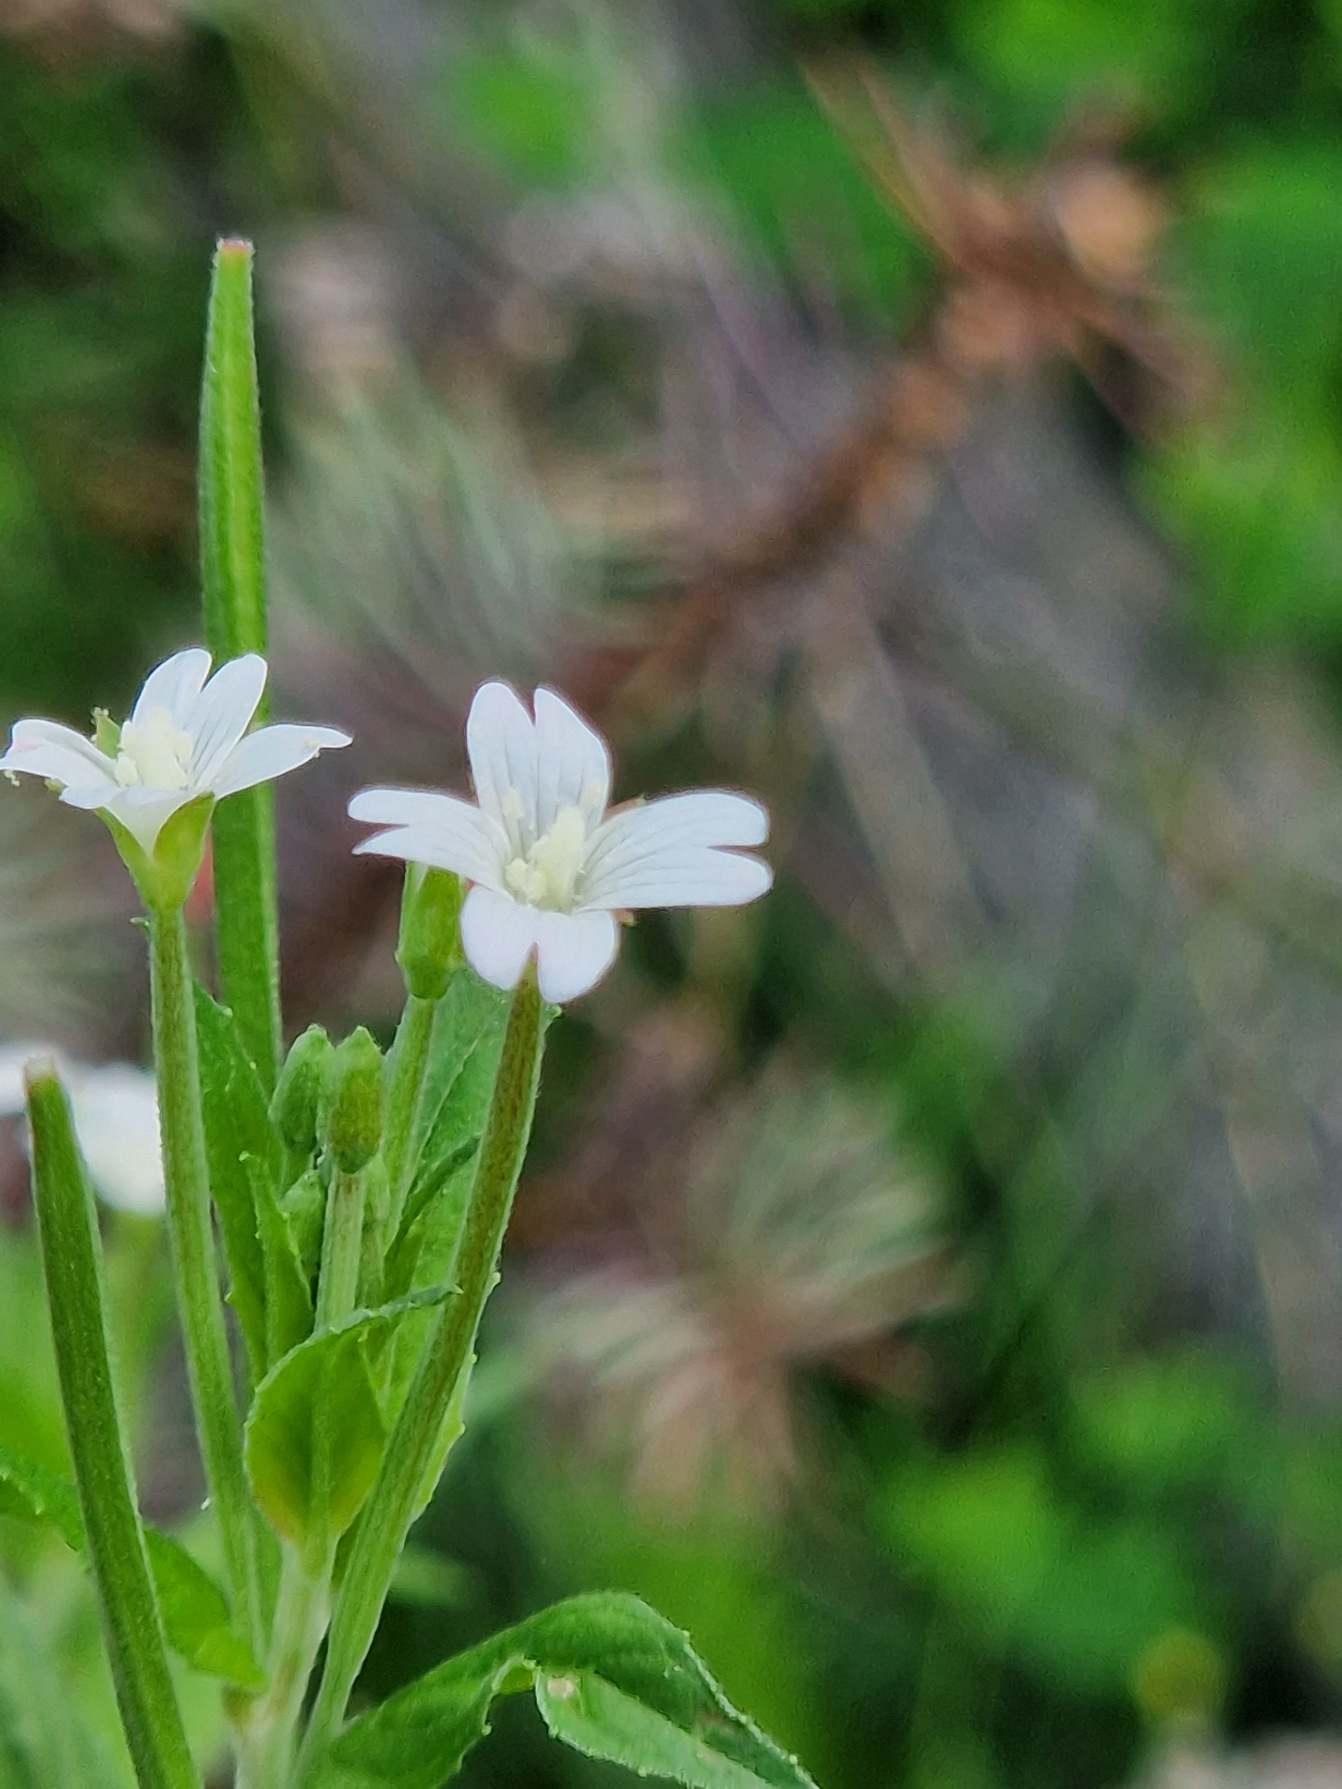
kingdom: Plantae
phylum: Tracheophyta
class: Magnoliopsida
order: Myrtales
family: Onagraceae
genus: Epilobium
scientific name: Epilobium
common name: Dueurtslægten
